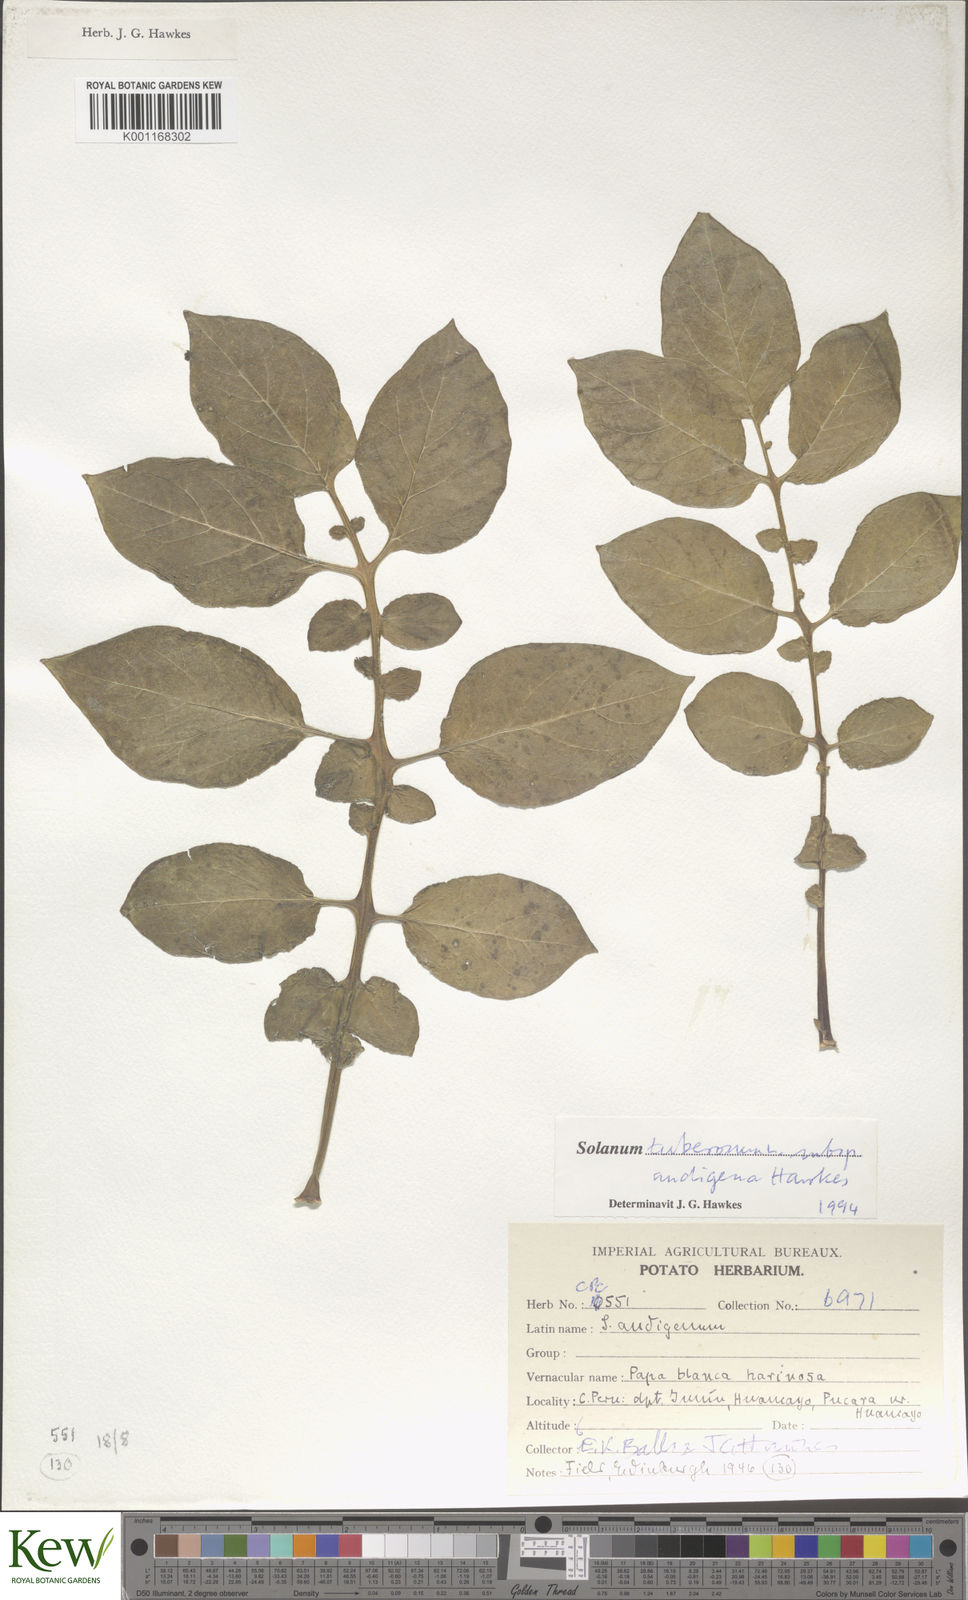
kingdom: Plantae
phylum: Tracheophyta
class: Magnoliopsida
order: Solanales
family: Solanaceae
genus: Solanum
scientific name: Solanum tuberosum
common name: Potato
